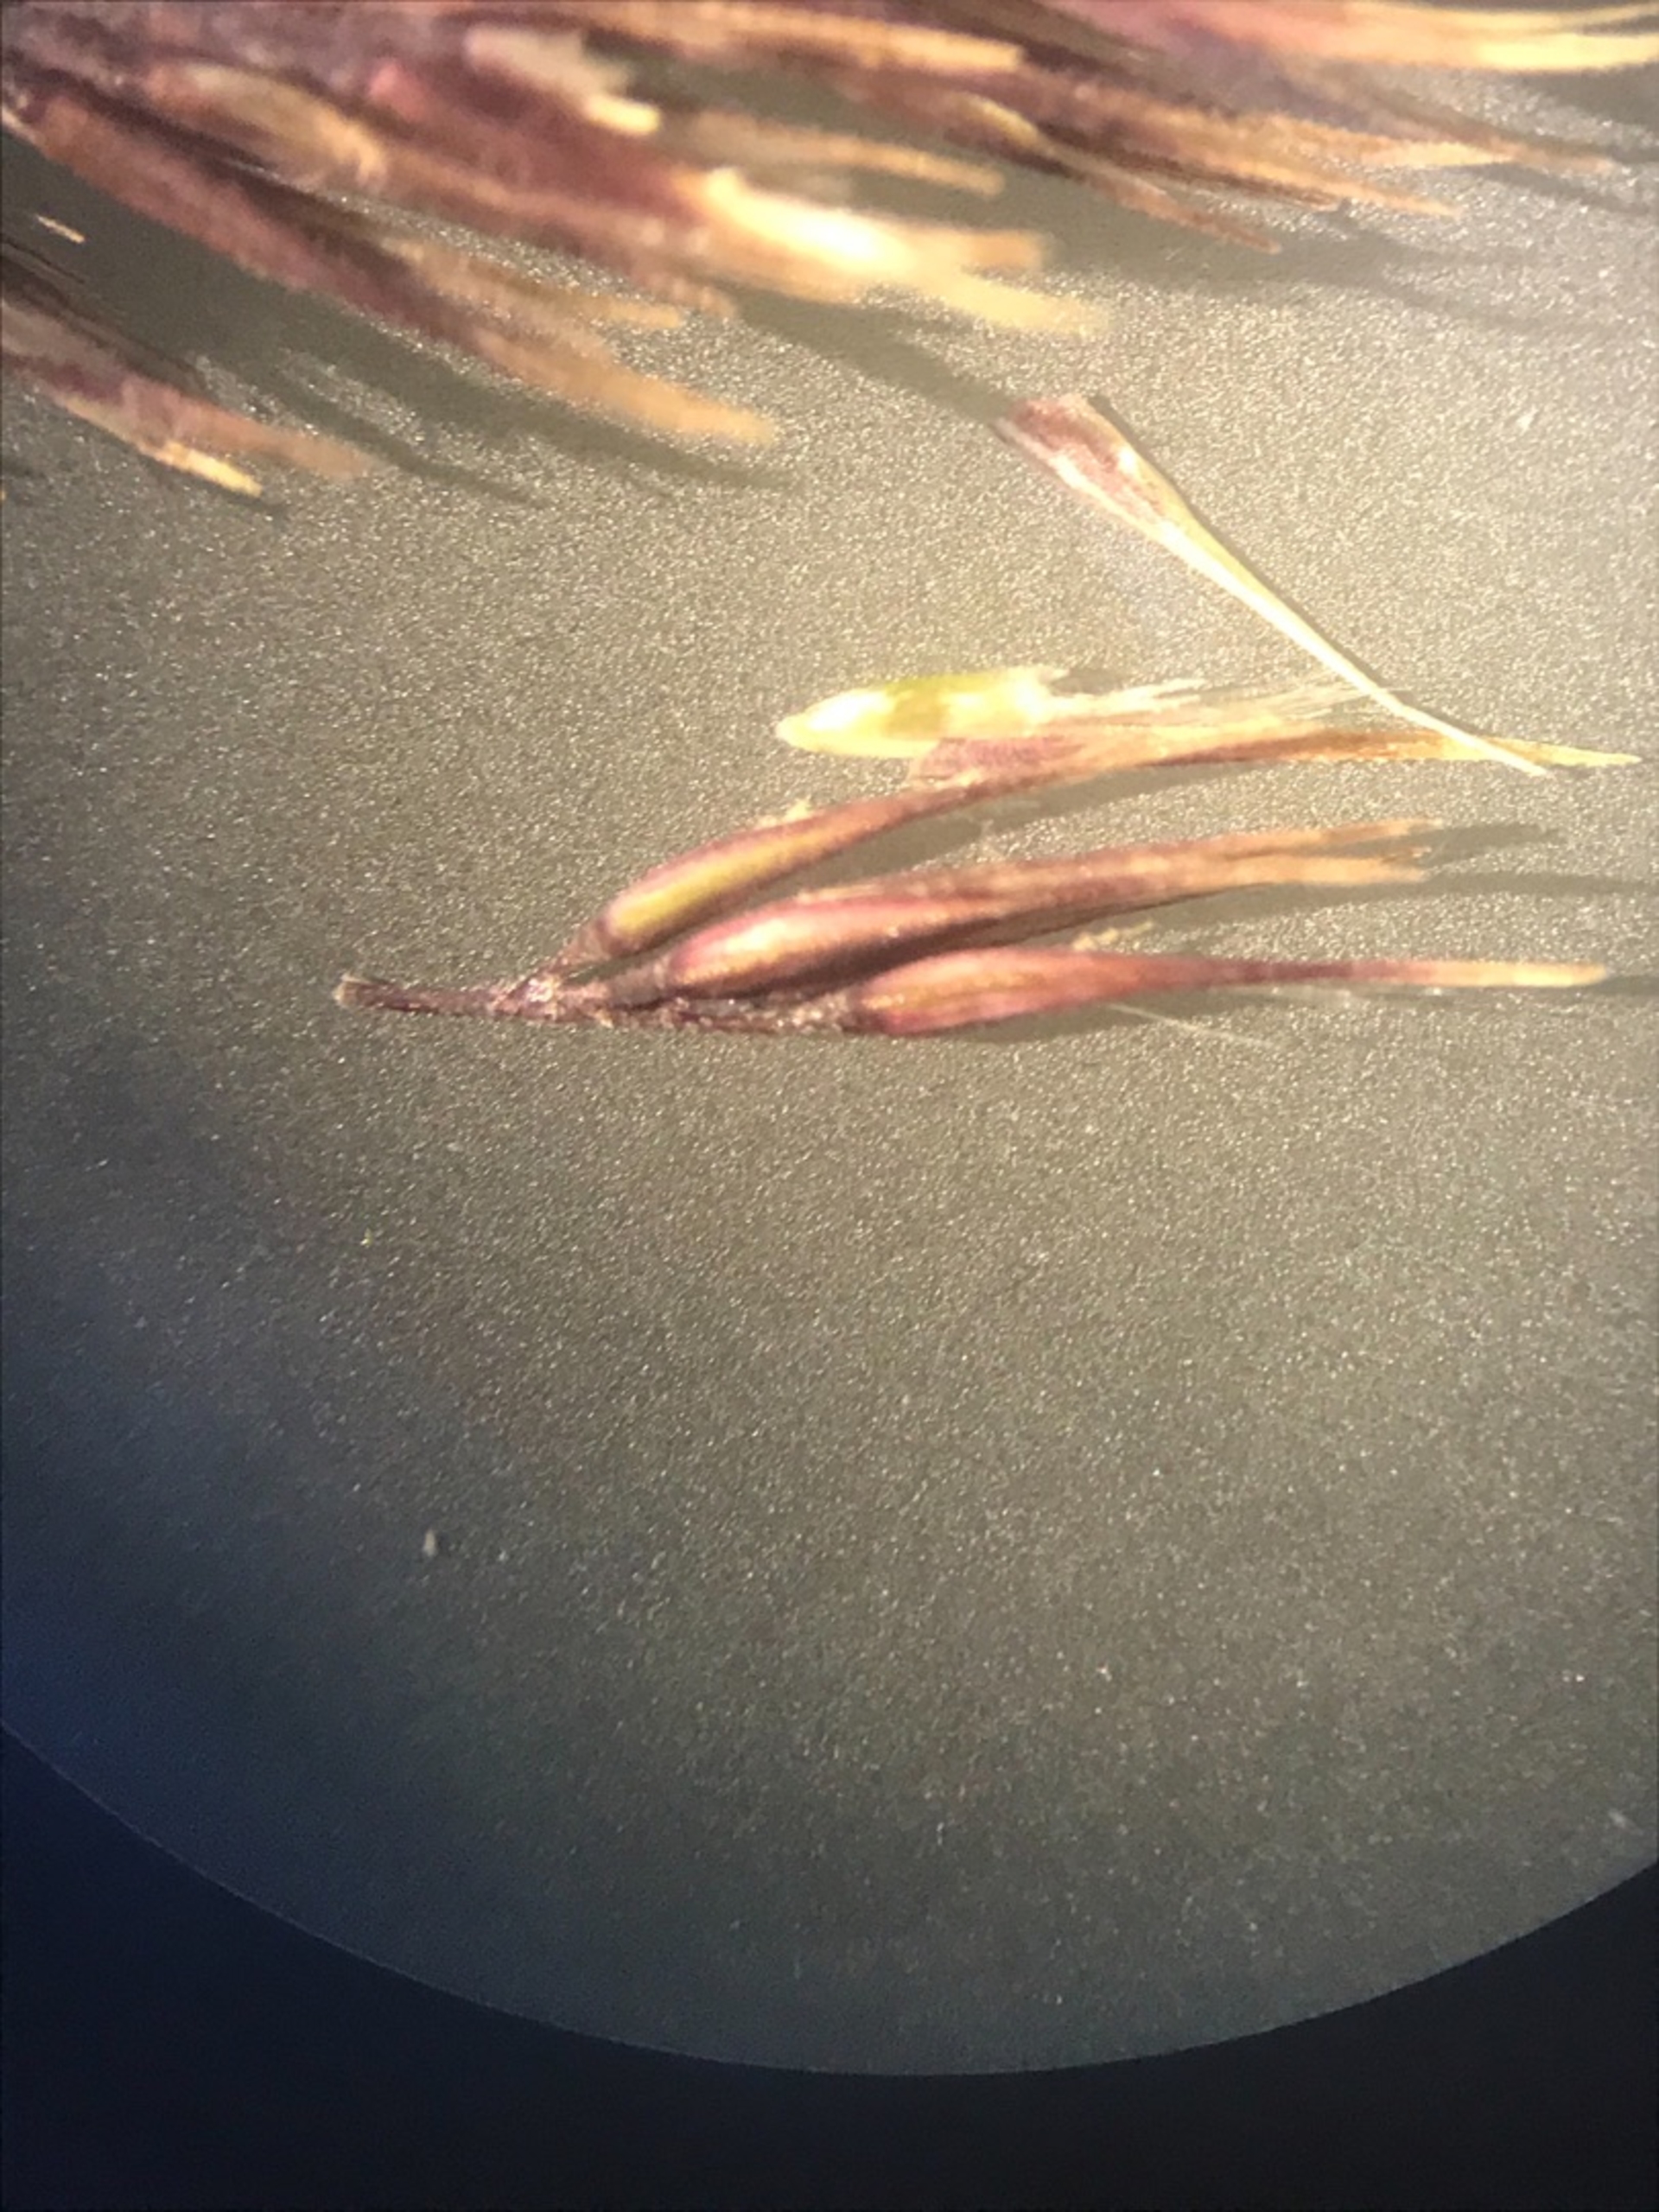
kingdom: Plantae
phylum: Tracheophyta
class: Liliopsida
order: Poales
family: Poaceae
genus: Calamagrostis
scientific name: Calamagrostis epigejos
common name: Bjerg-rørhvene
